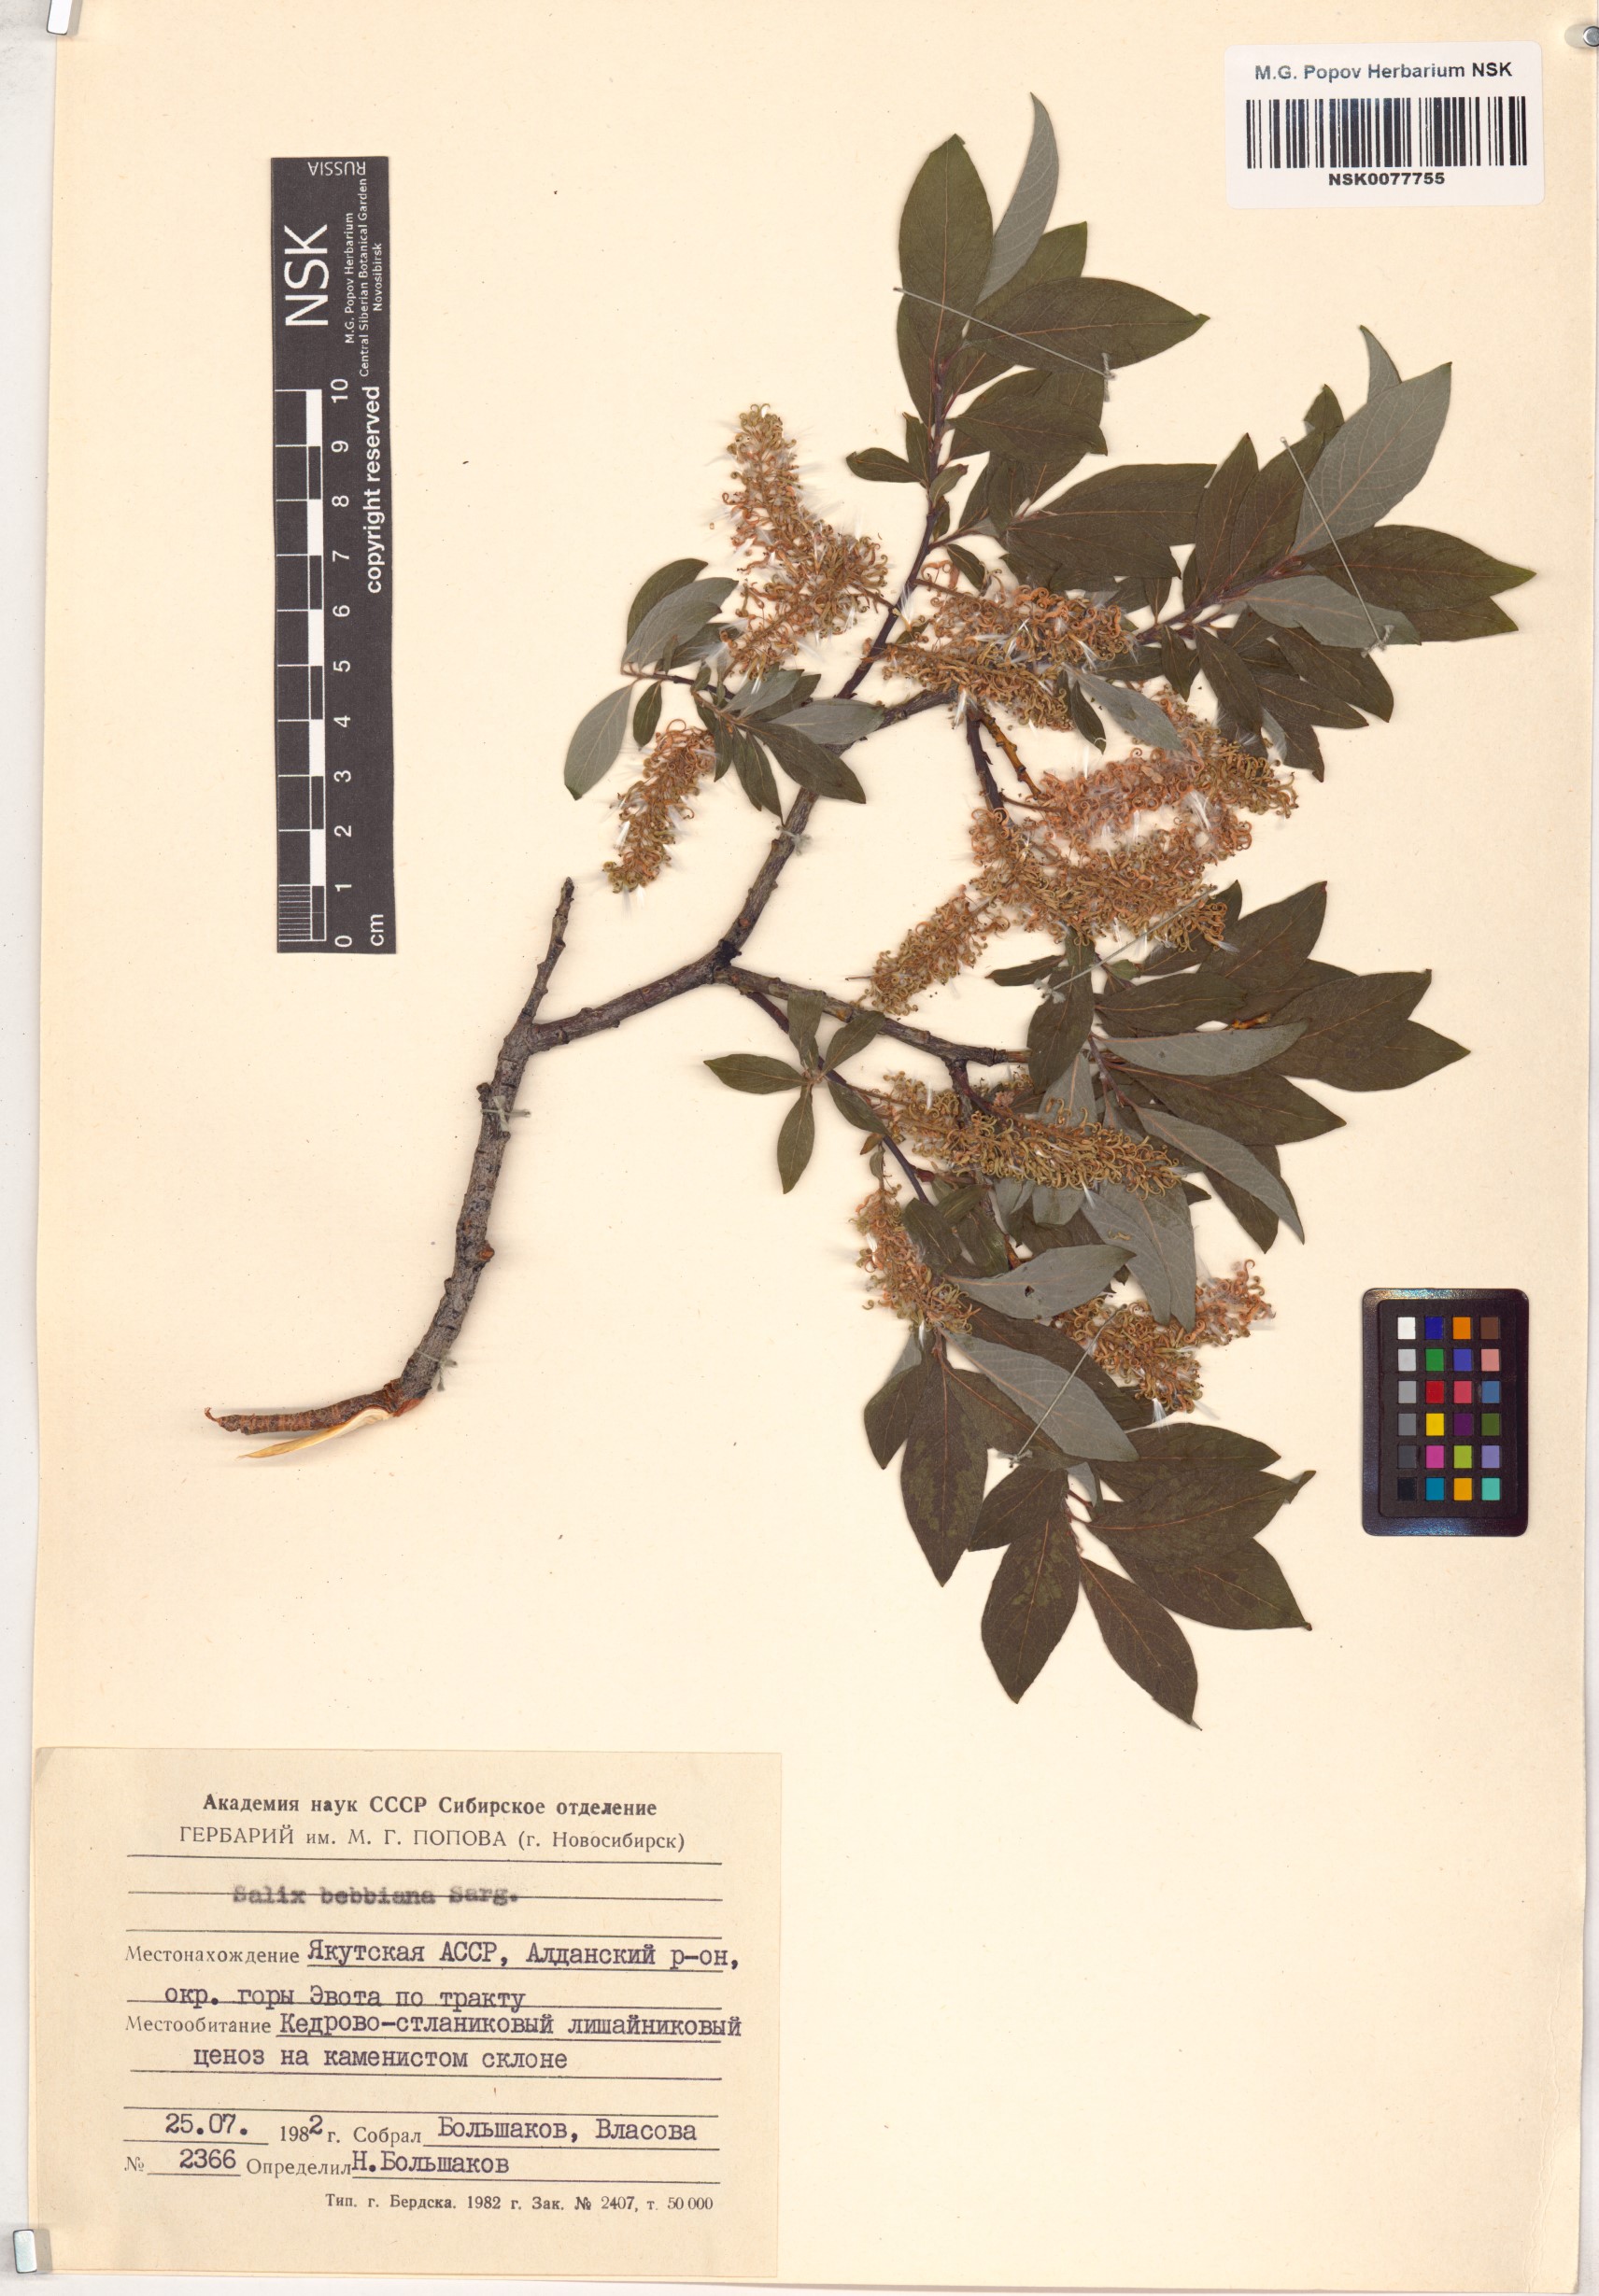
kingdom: Plantae
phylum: Tracheophyta
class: Magnoliopsida
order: Malpighiales
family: Salicaceae
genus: Salix
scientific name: Salix bebbiana
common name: Bebb's willow
